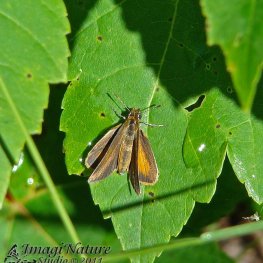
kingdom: Animalia
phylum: Arthropoda
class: Insecta
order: Lepidoptera
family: Hesperiidae
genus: Ancyloxypha
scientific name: Ancyloxypha numitor
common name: Least Skipper
